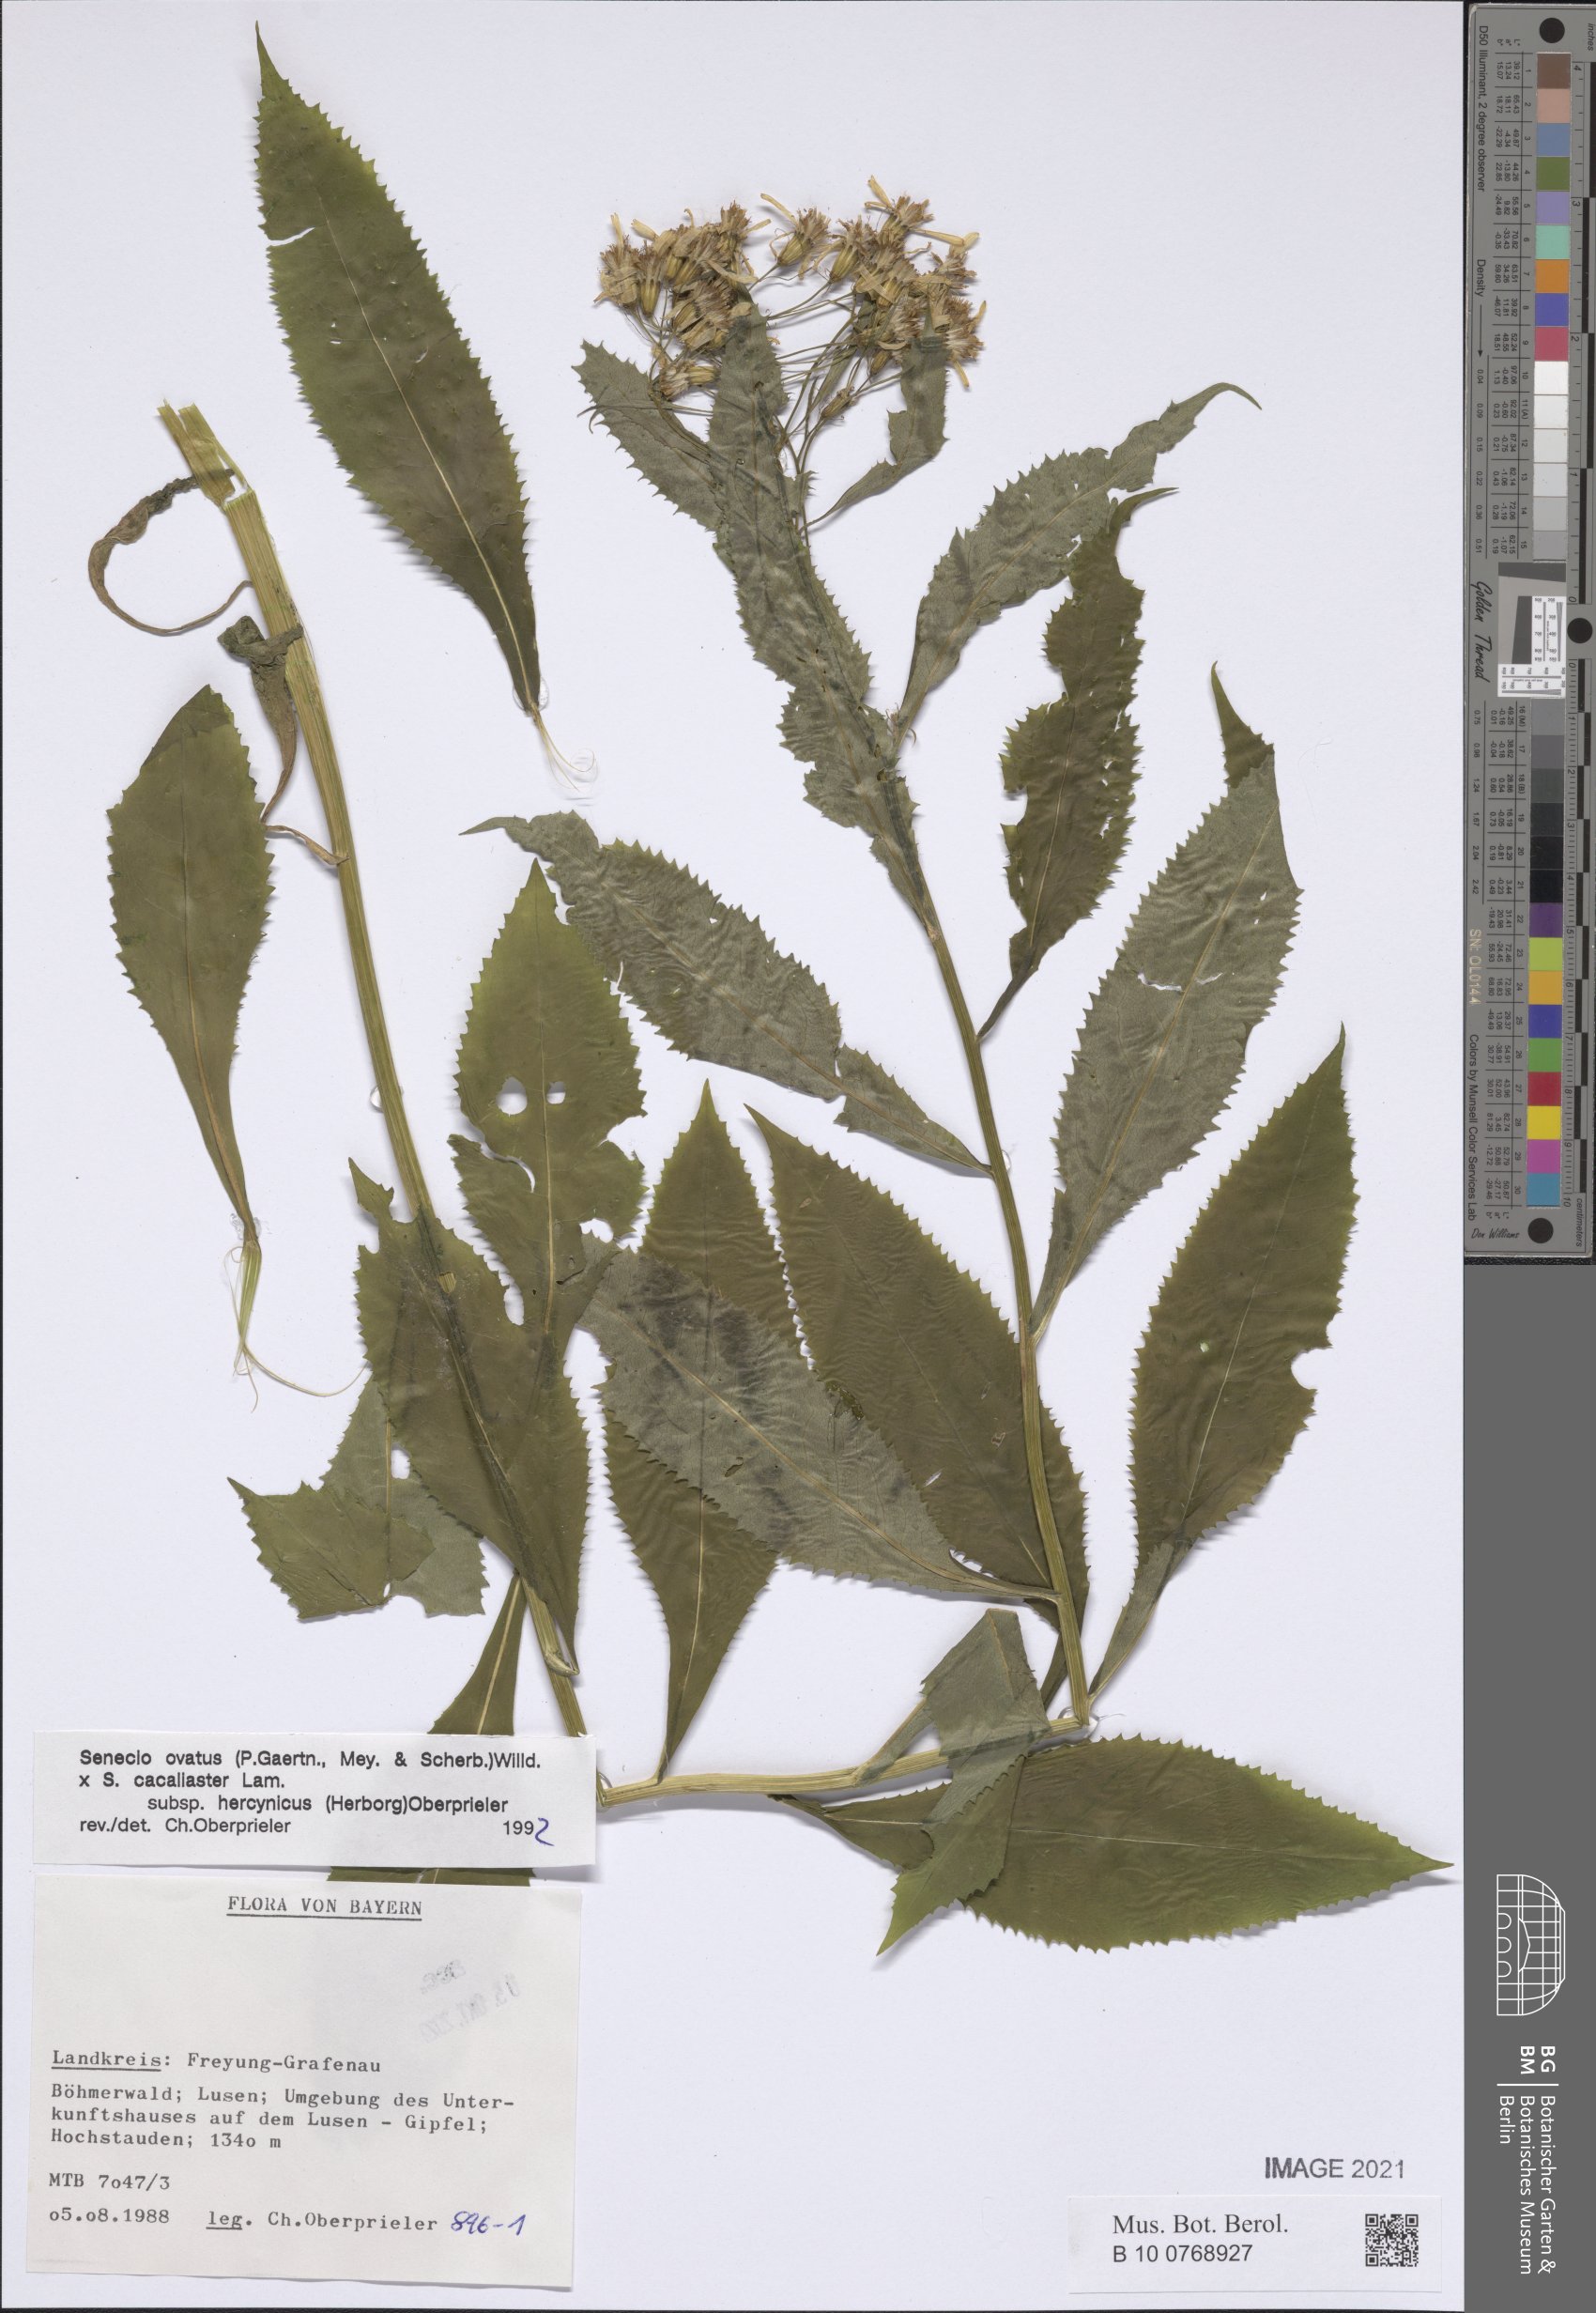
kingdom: Plantae
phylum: Tracheophyta
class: Magnoliopsida
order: Asterales
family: Asteraceae
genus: Senecio
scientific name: Senecio ovatus
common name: Wood ragwort
